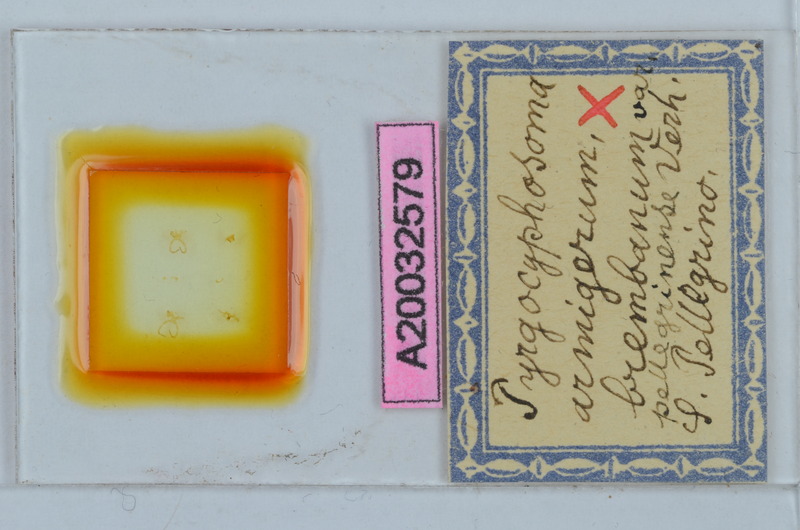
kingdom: Animalia
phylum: Arthropoda
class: Diplopoda
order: Chordeumatida
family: Craspedosomatidae
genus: Pyrgocyphosoma
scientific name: Pyrgocyphosoma brembanum
